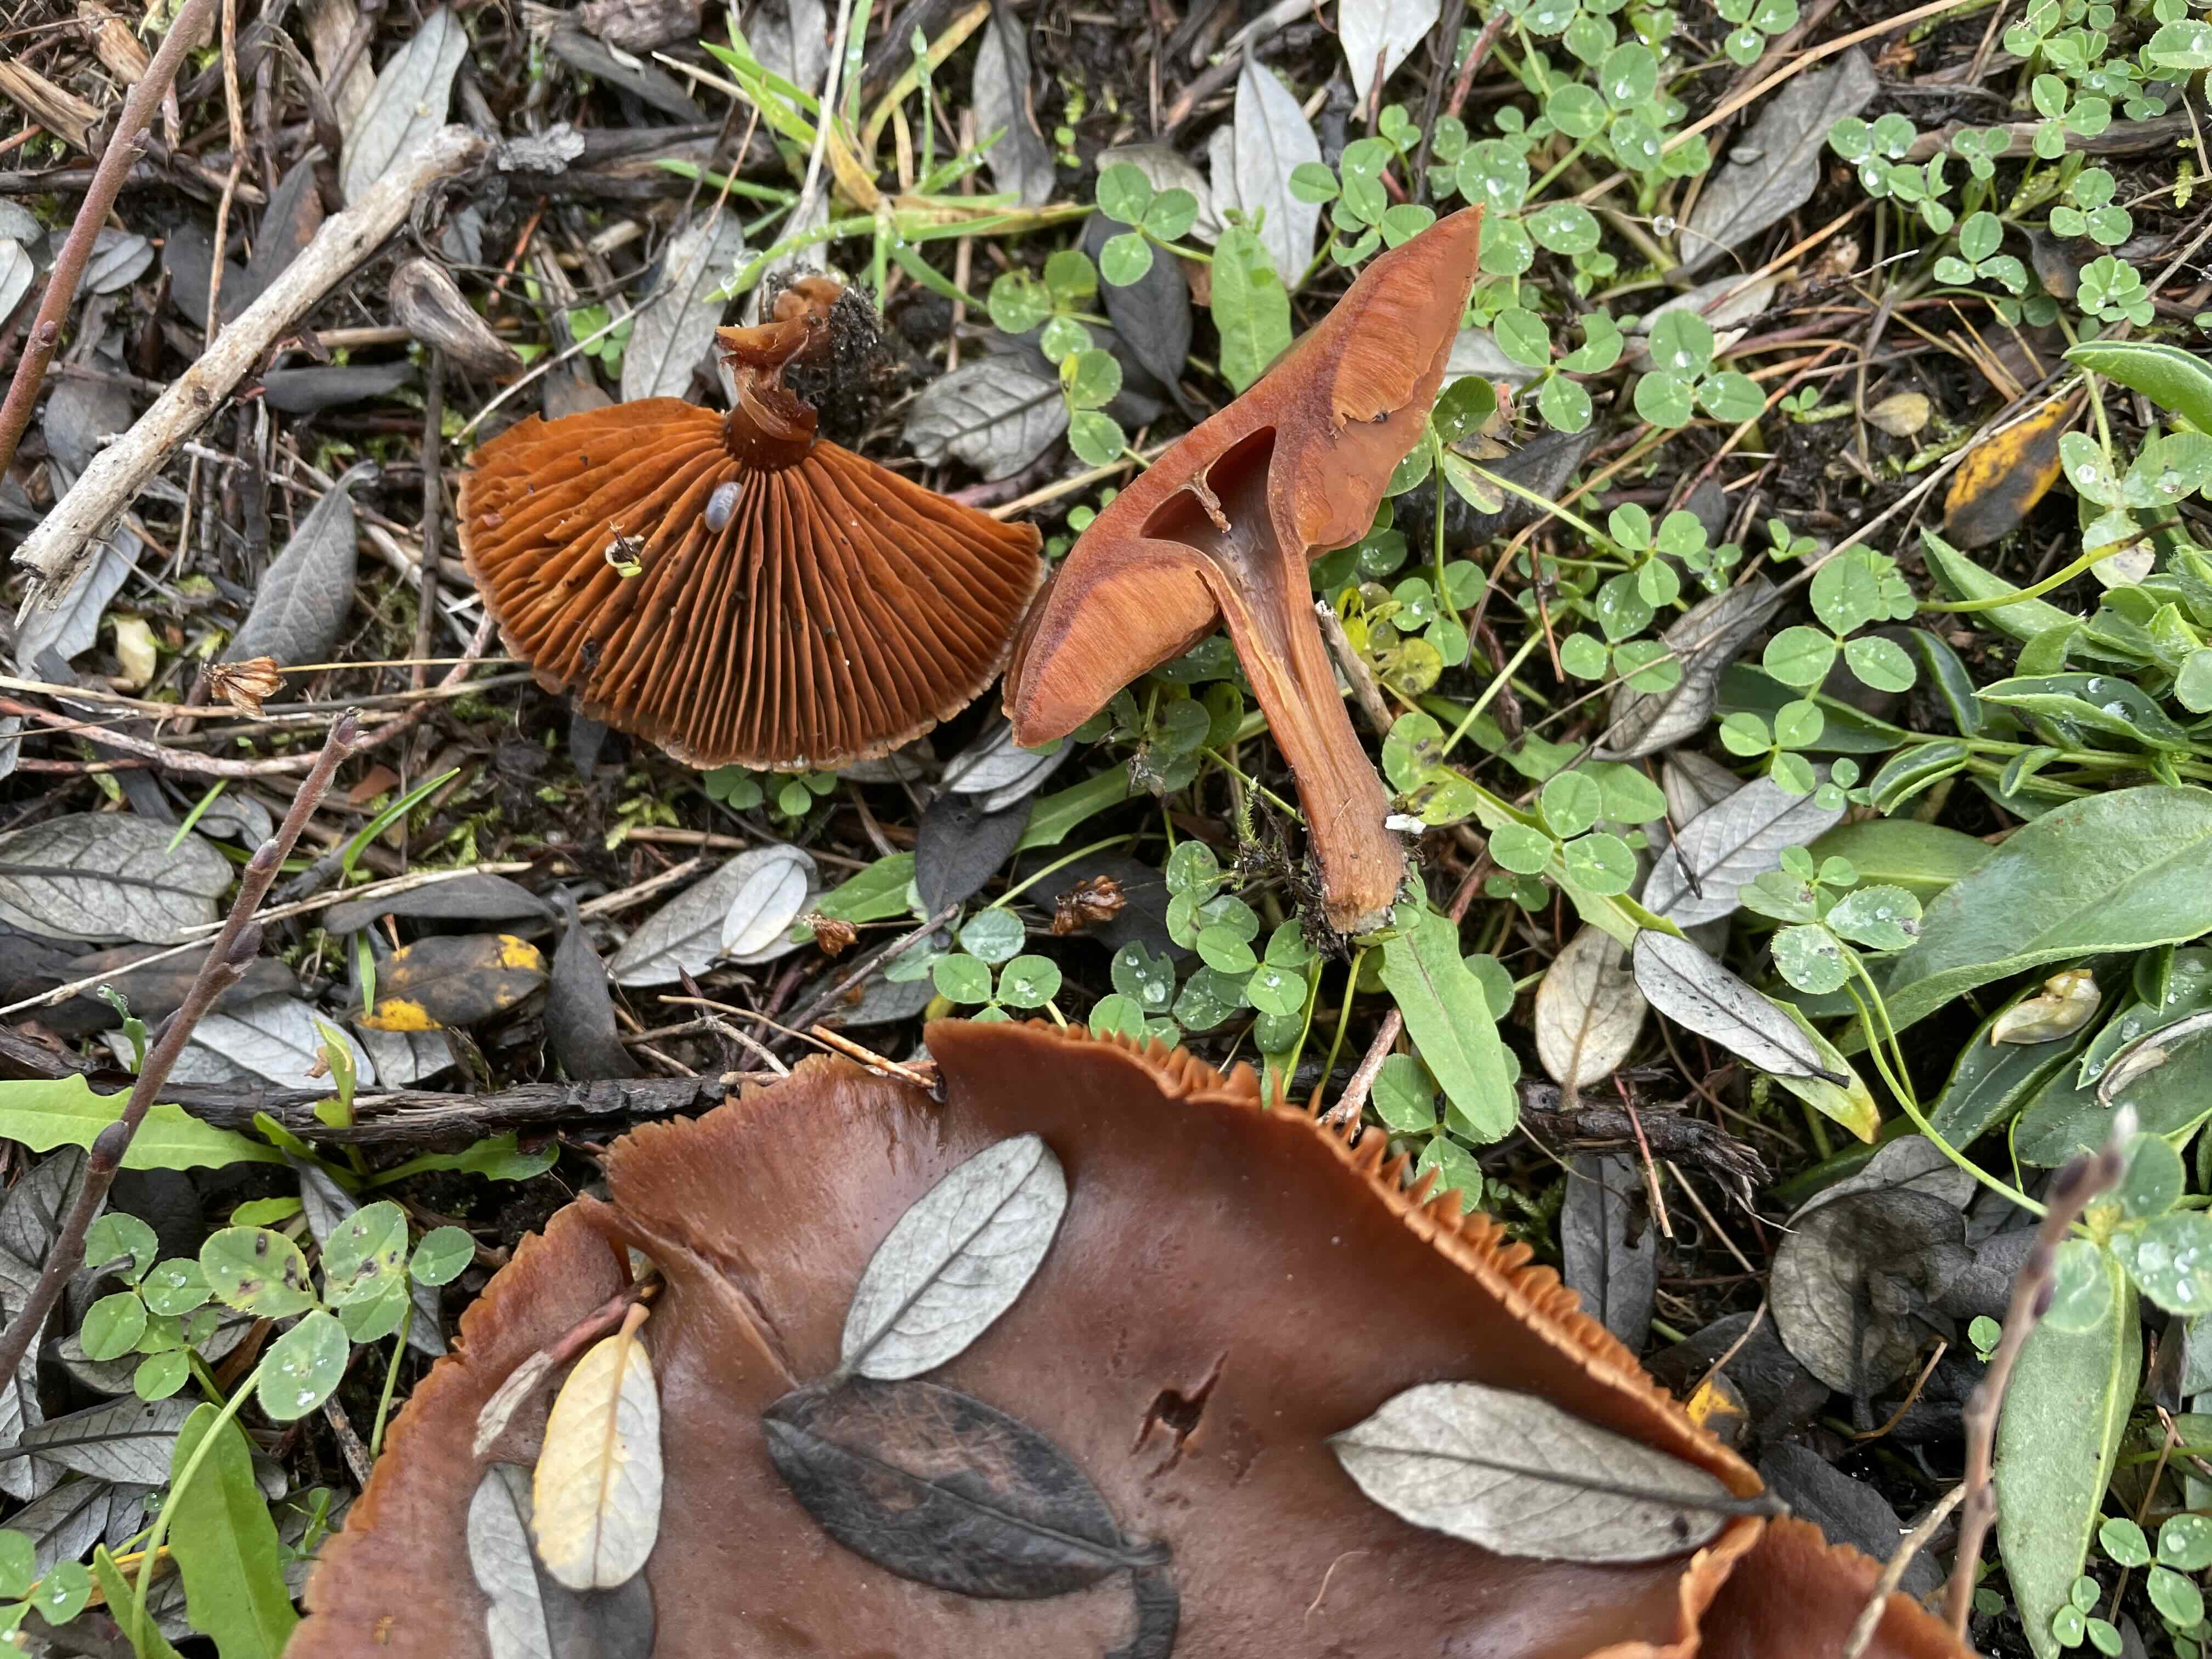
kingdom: Fungi
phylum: Basidiomycota
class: Agaricomycetes
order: Agaricales
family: Cortinariaceae
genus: Cortinarius
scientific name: Cortinarius
